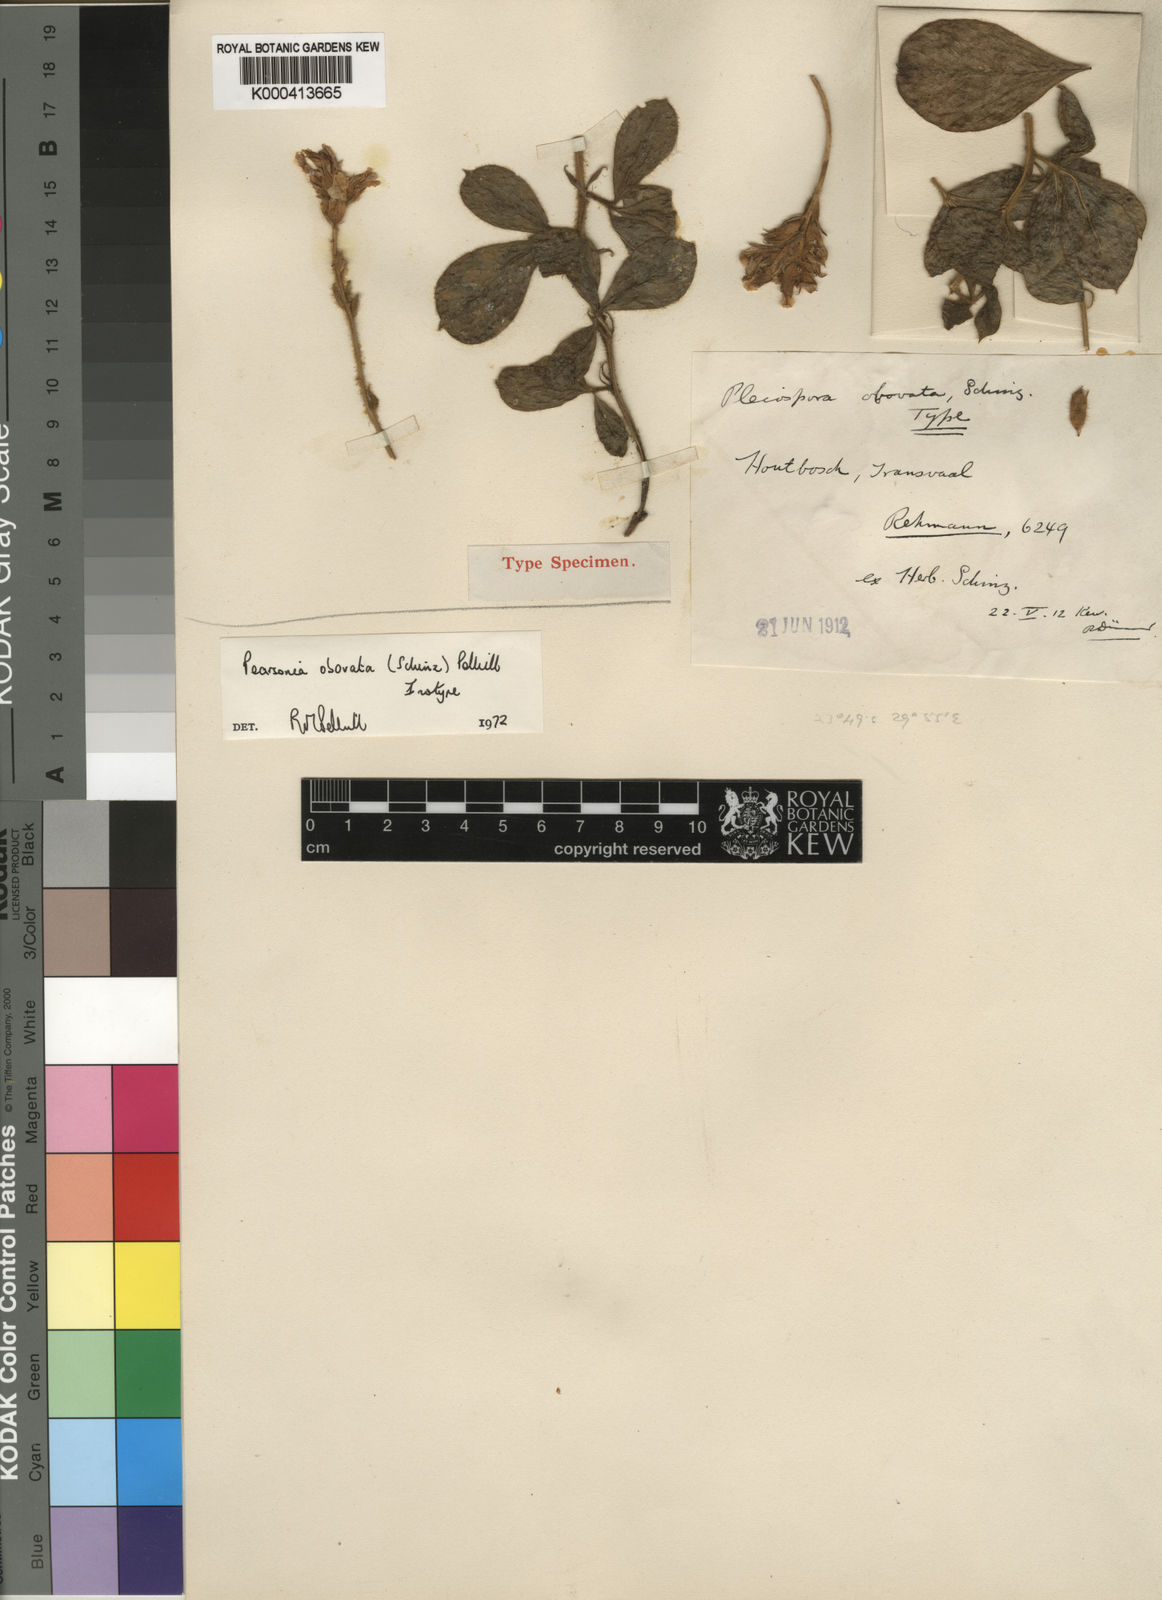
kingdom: Plantae
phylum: Tracheophyta
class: Magnoliopsida
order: Fabales
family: Fabaceae
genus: Pearsonia
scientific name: Pearsonia obovata
